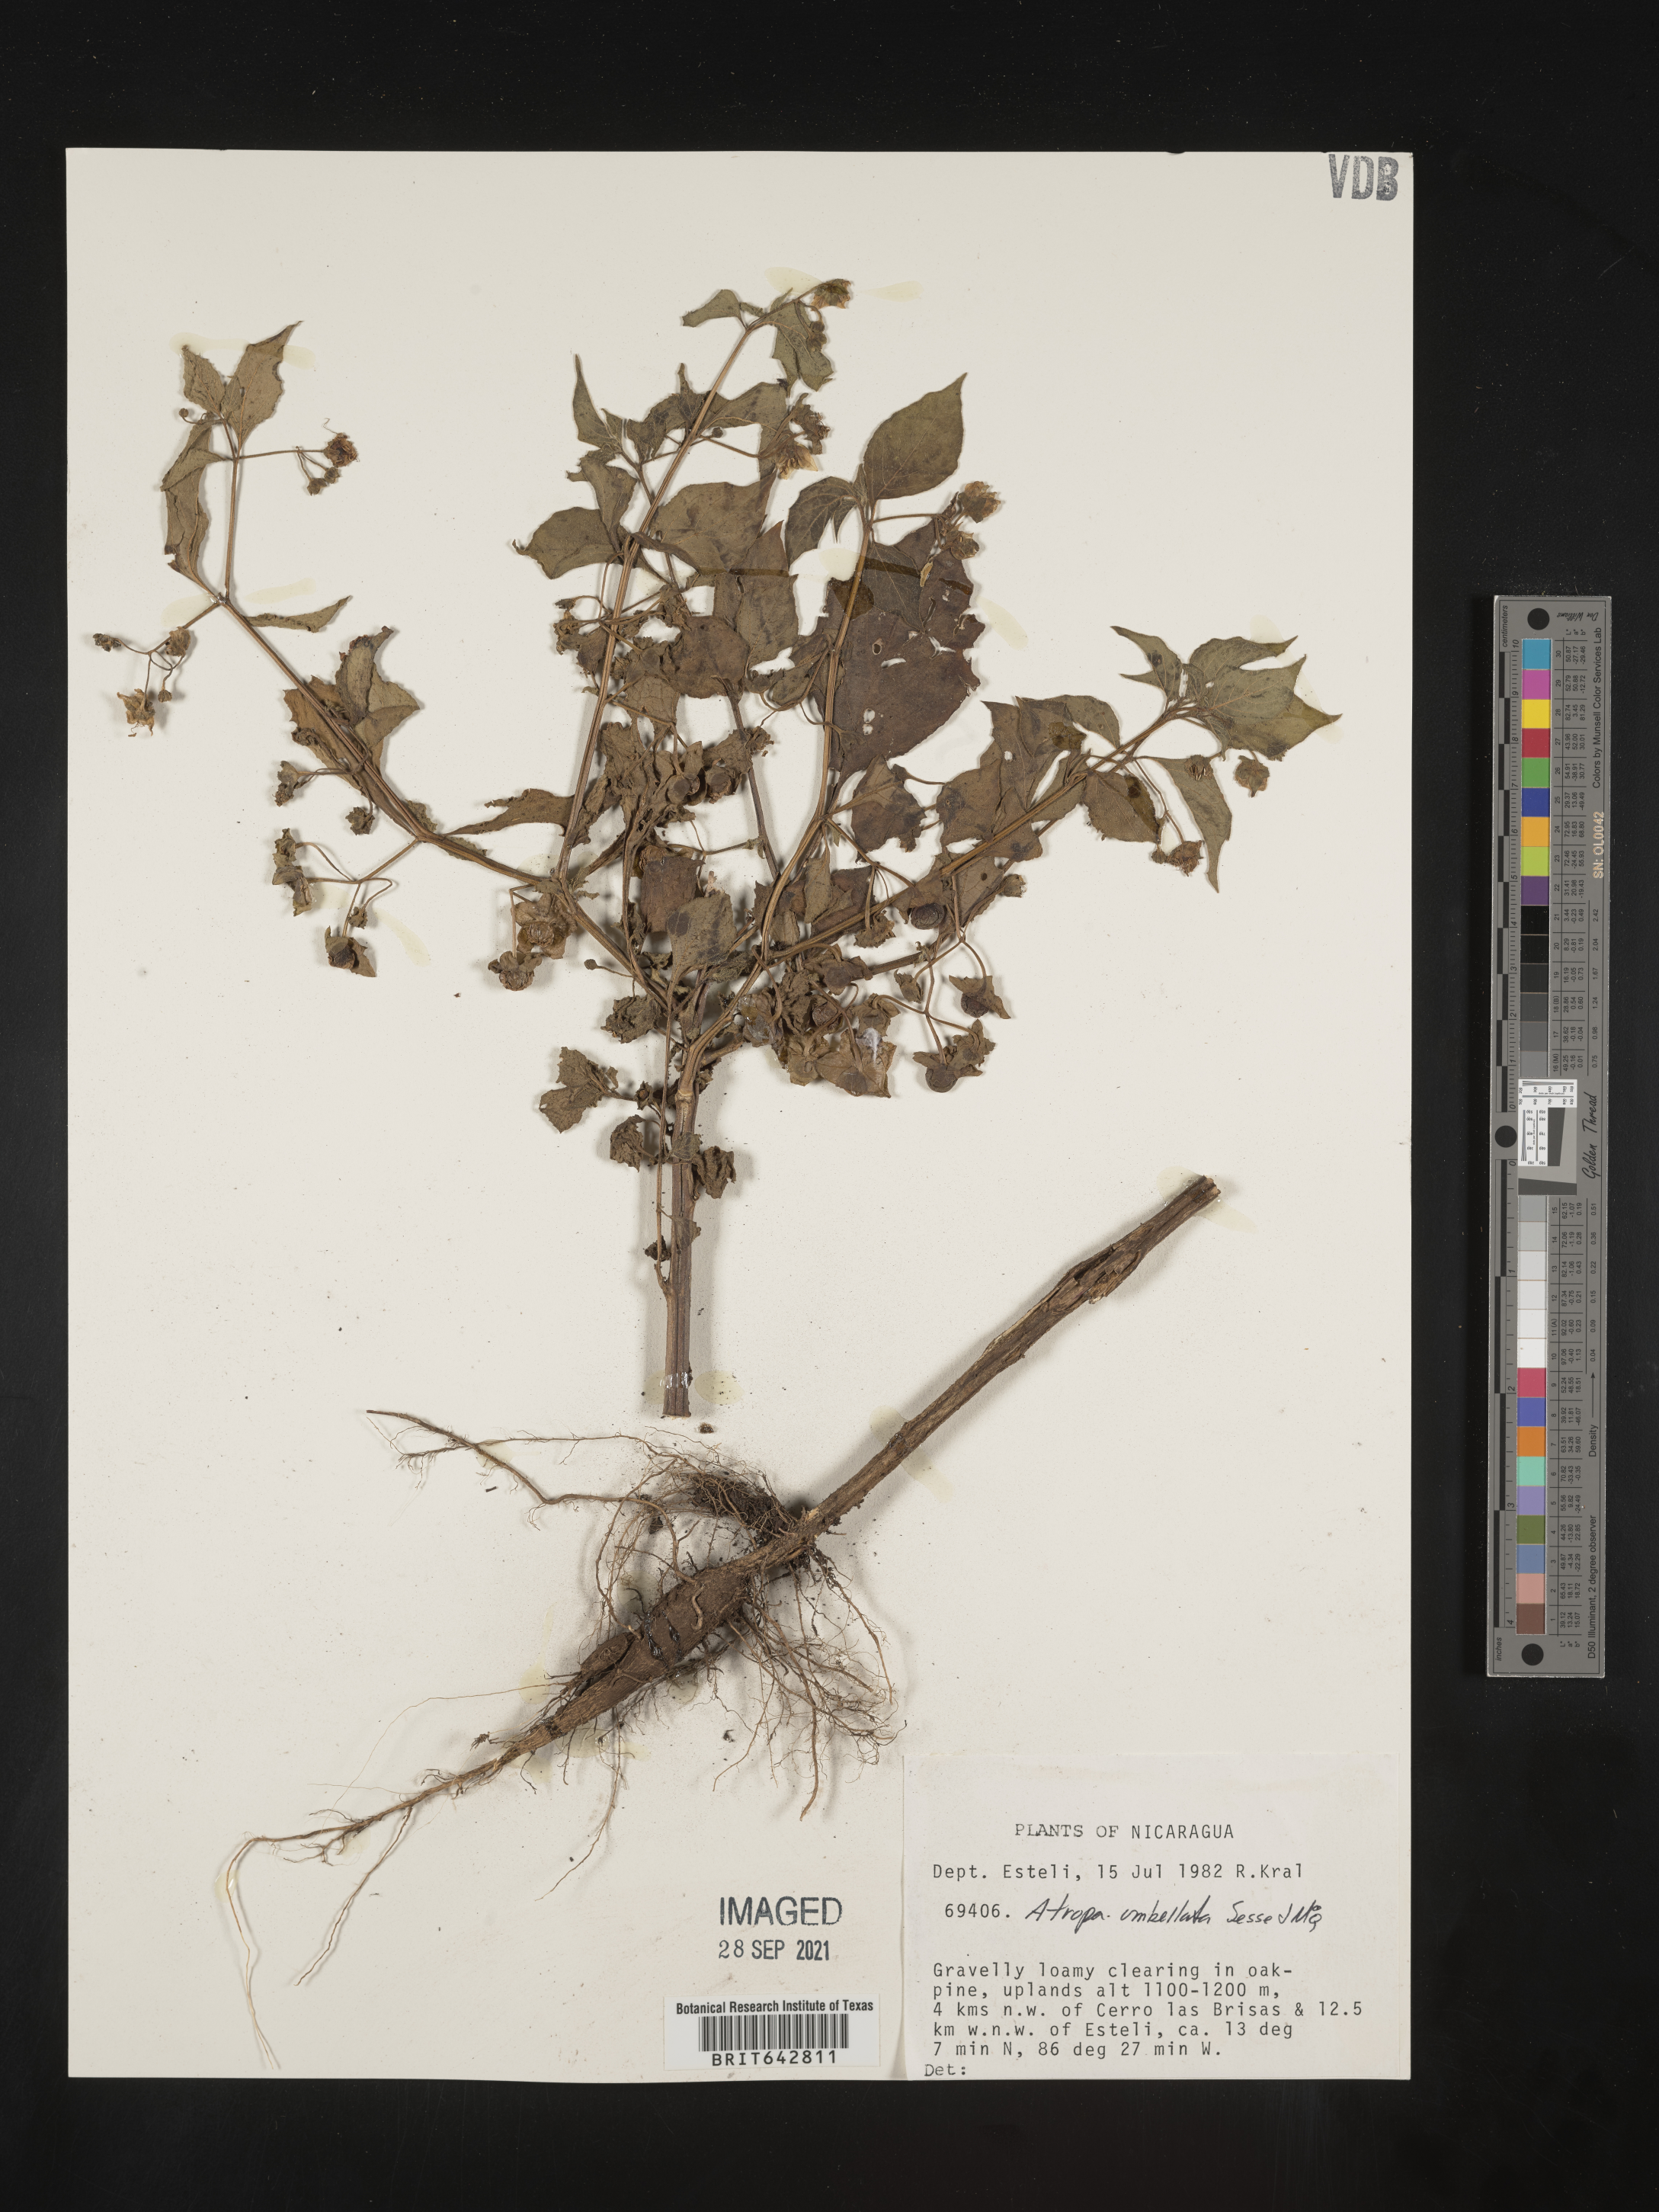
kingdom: Plantae
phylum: Tracheophyta
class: Magnoliopsida
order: Solanales
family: Solanaceae
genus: Atropa
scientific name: Atropa
